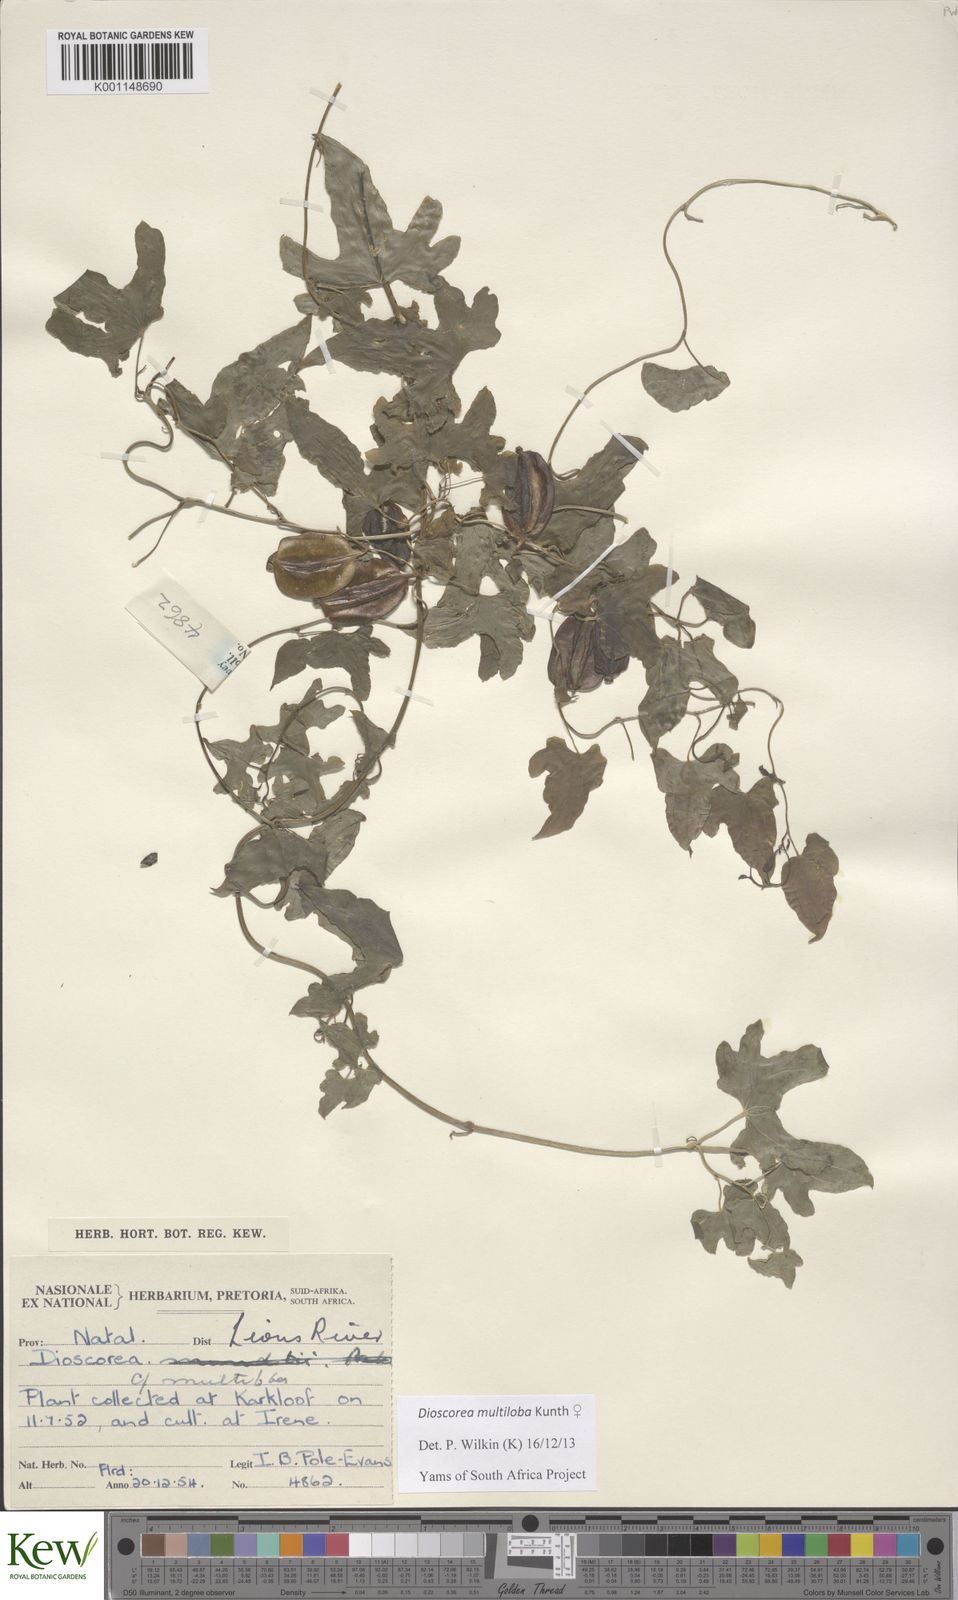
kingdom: Plantae
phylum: Tracheophyta
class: Liliopsida
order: Dioscoreales
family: Dioscoreaceae
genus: Dioscorea
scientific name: Dioscorea multiloba
